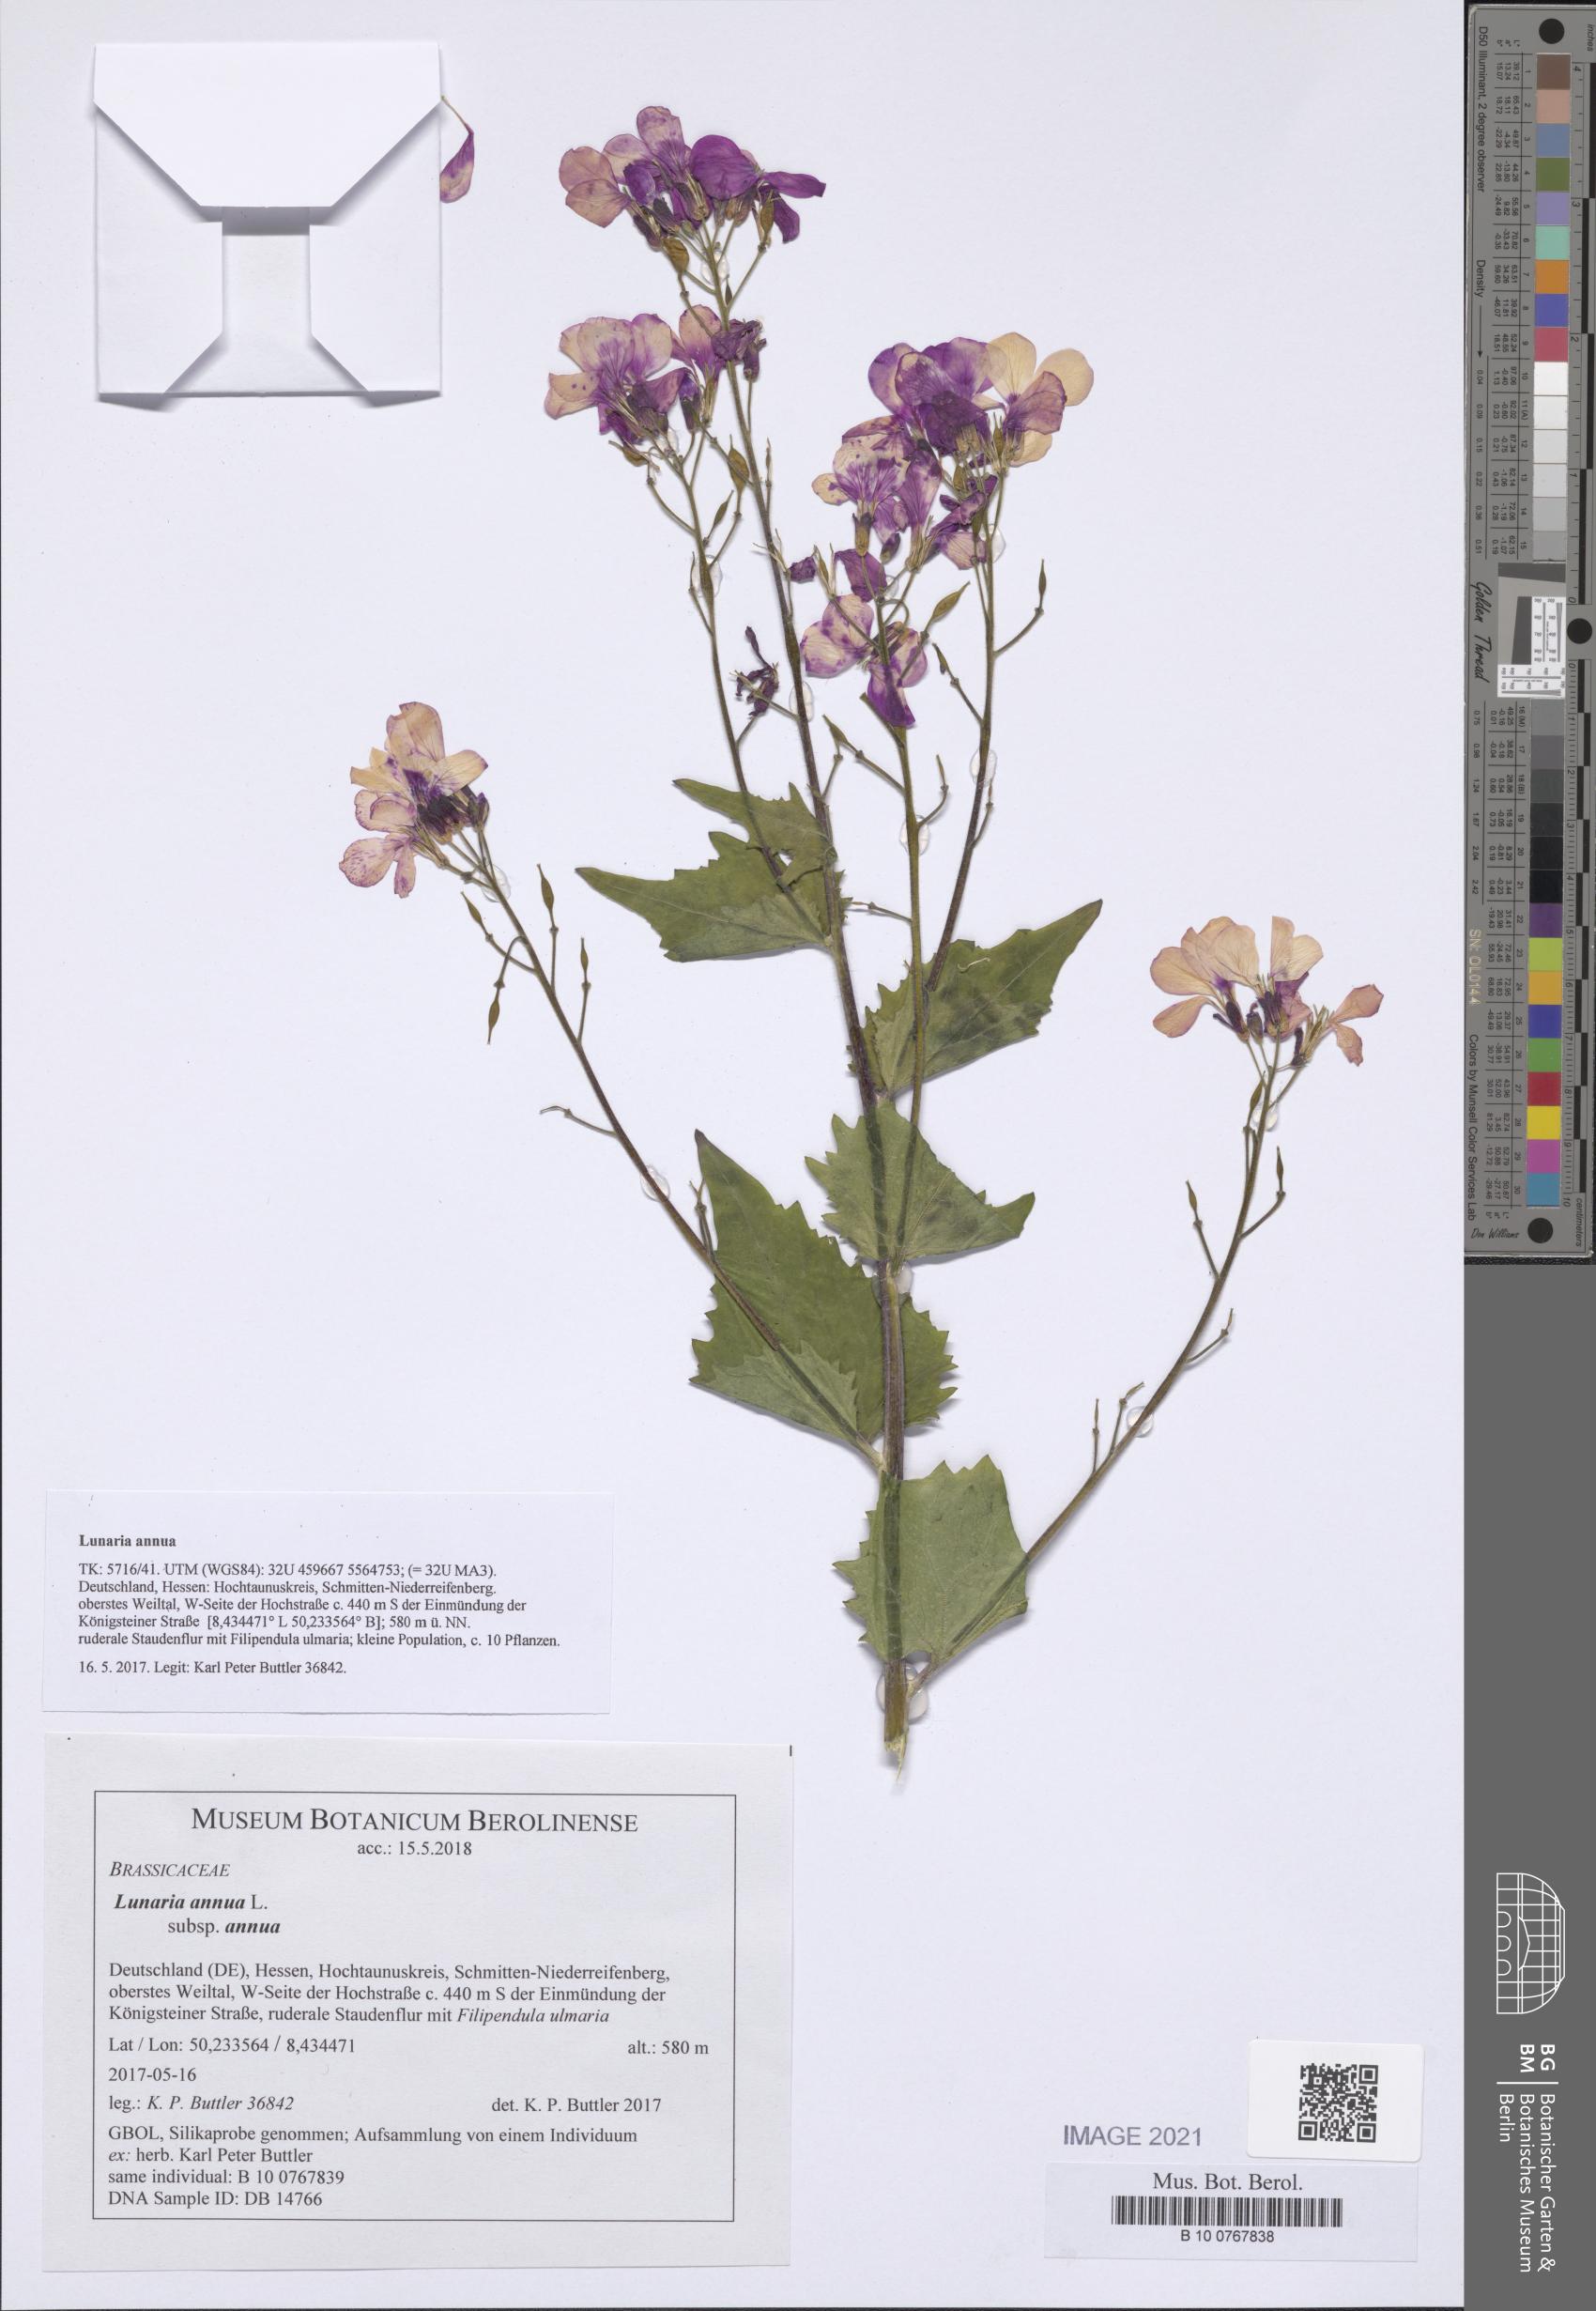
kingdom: Plantae
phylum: Tracheophyta
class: Magnoliopsida
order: Brassicales
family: Brassicaceae
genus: Lunaria
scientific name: Lunaria annua
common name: Honesty
